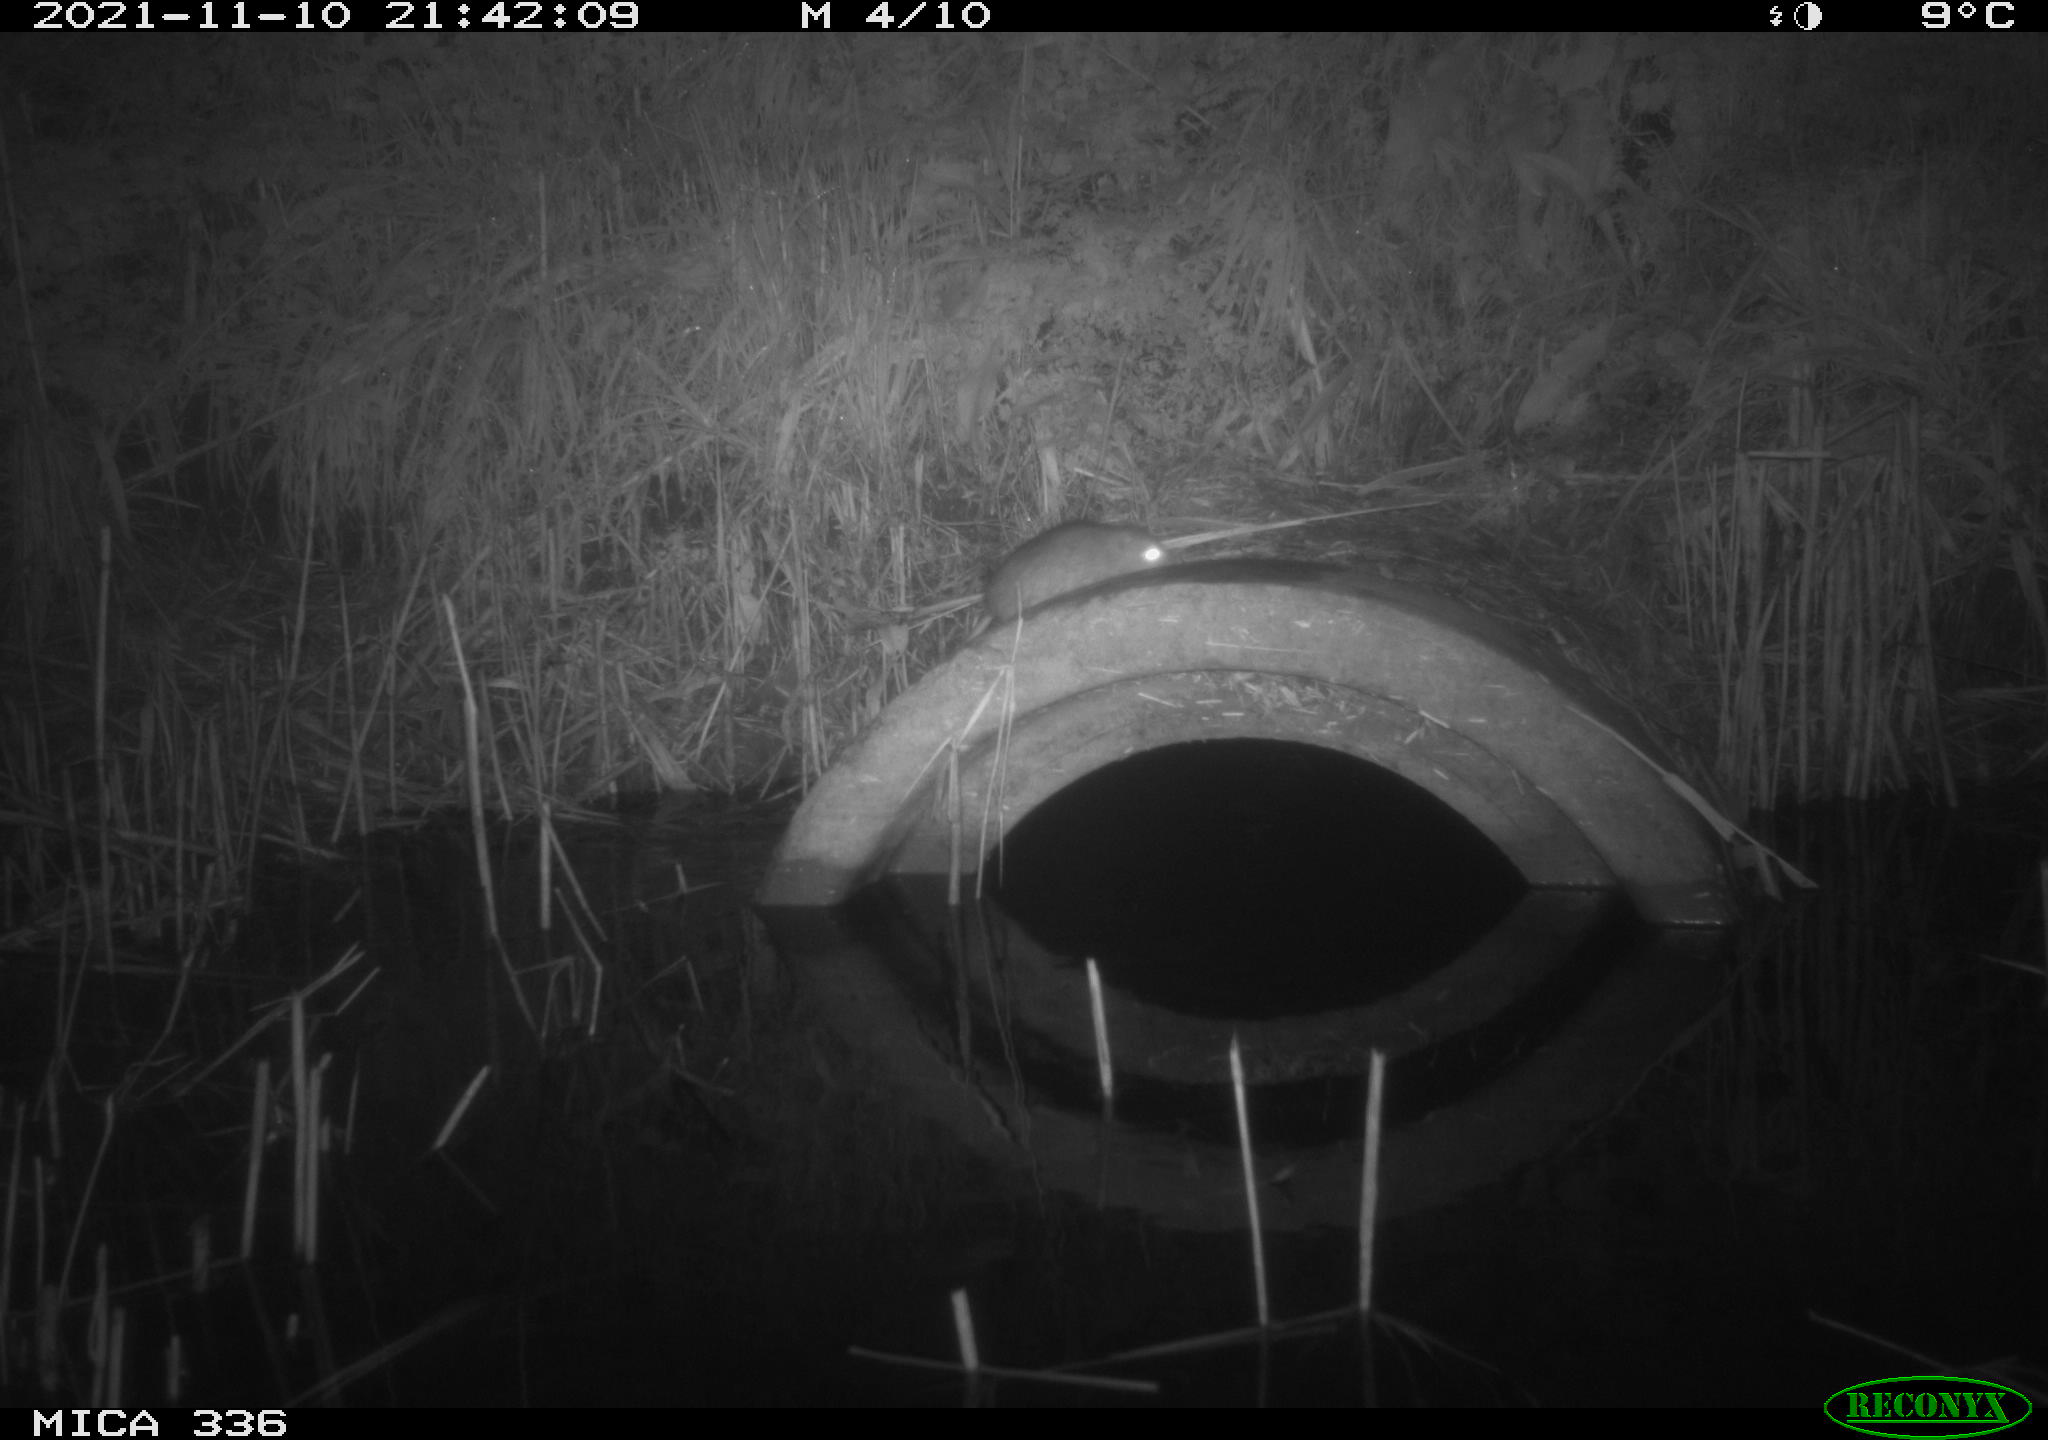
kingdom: Animalia
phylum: Chordata
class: Mammalia
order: Rodentia
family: Muridae
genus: Rattus
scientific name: Rattus norvegicus
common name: Brown rat
